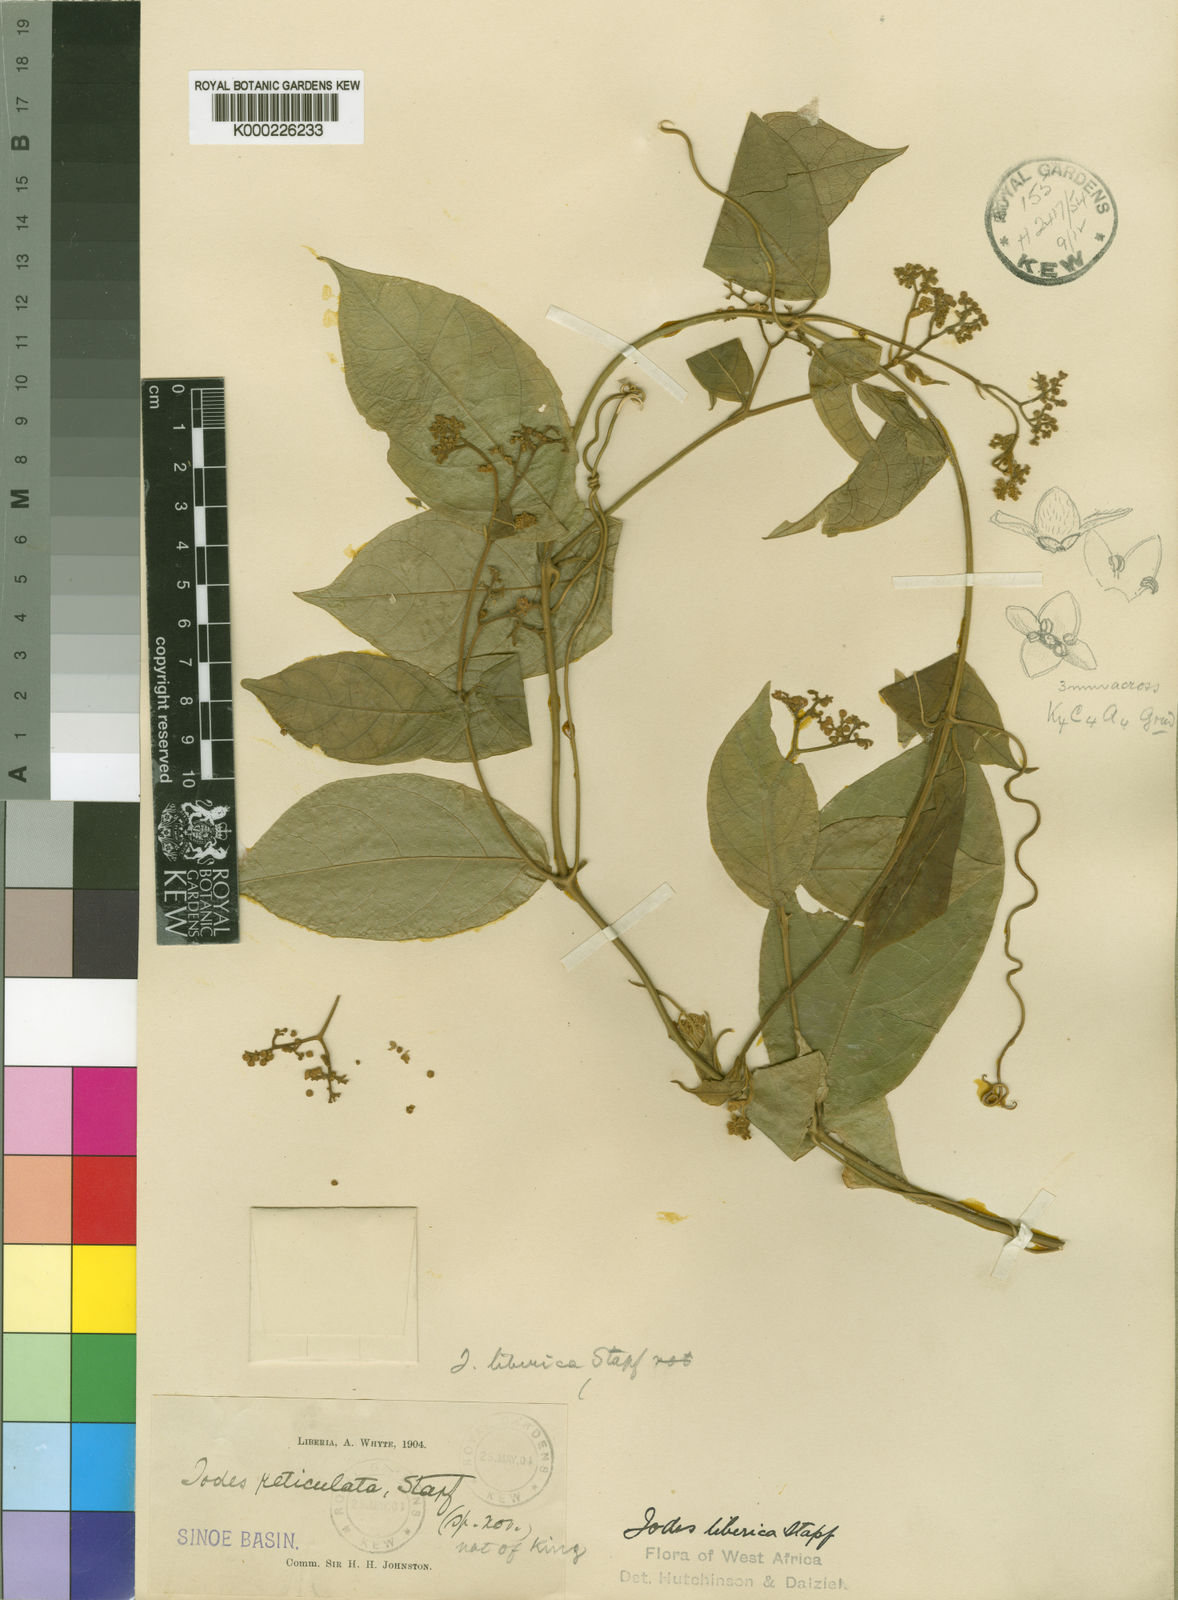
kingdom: Plantae
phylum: Tracheophyta
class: Magnoliopsida
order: Icacinales
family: Icacinaceae
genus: Iodes
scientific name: Iodes liberica
